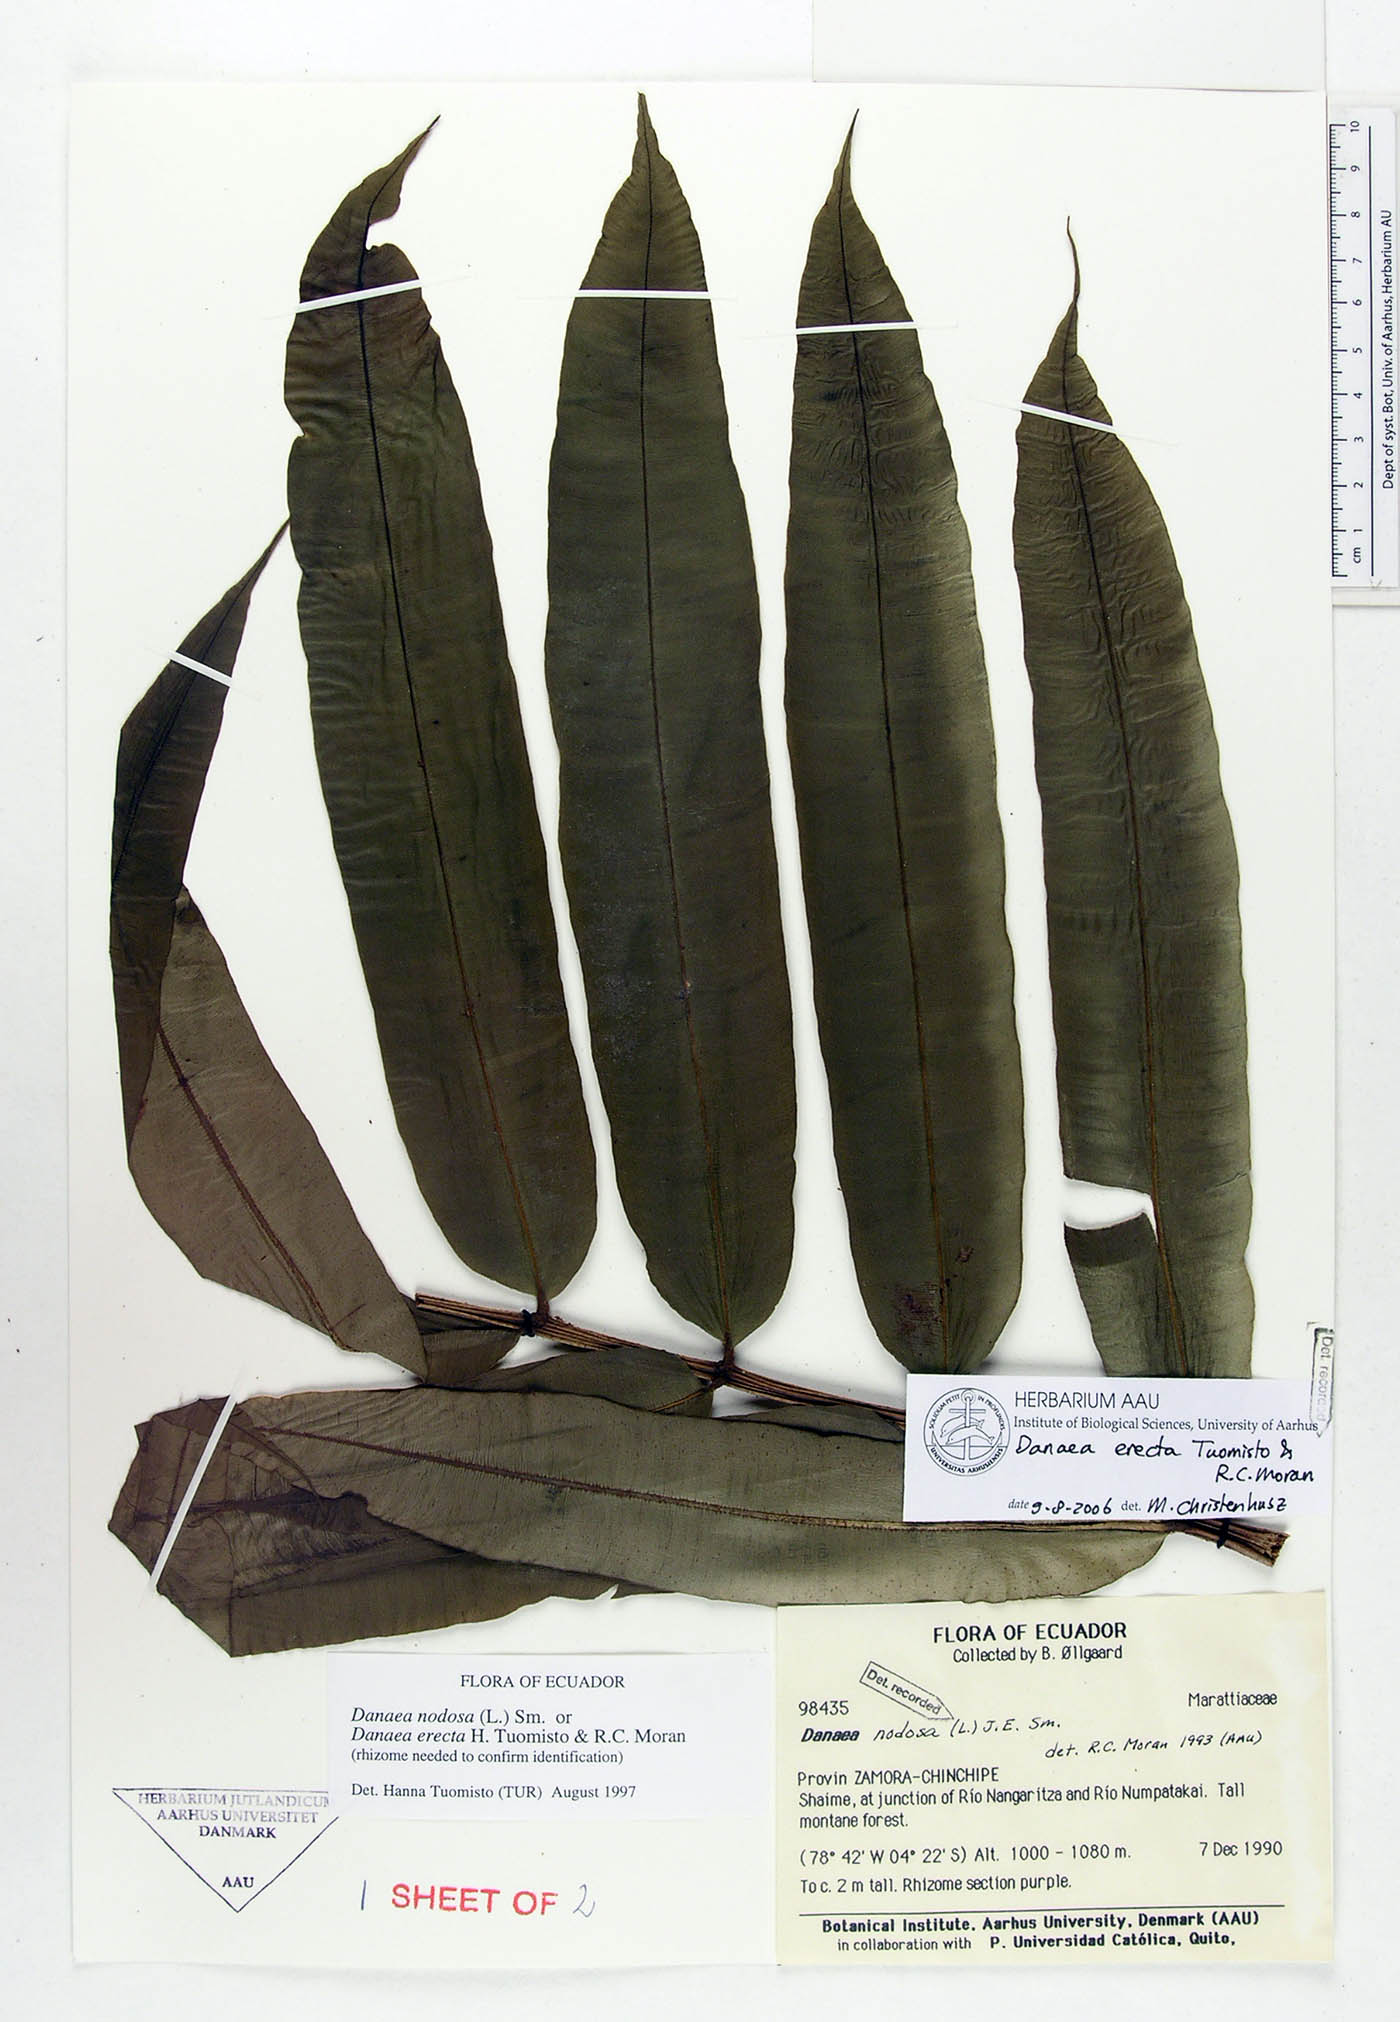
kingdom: Plantae
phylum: Tracheophyta
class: Polypodiopsida
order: Marattiales
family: Marattiaceae
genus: Danaea
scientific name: Danaea erecta
